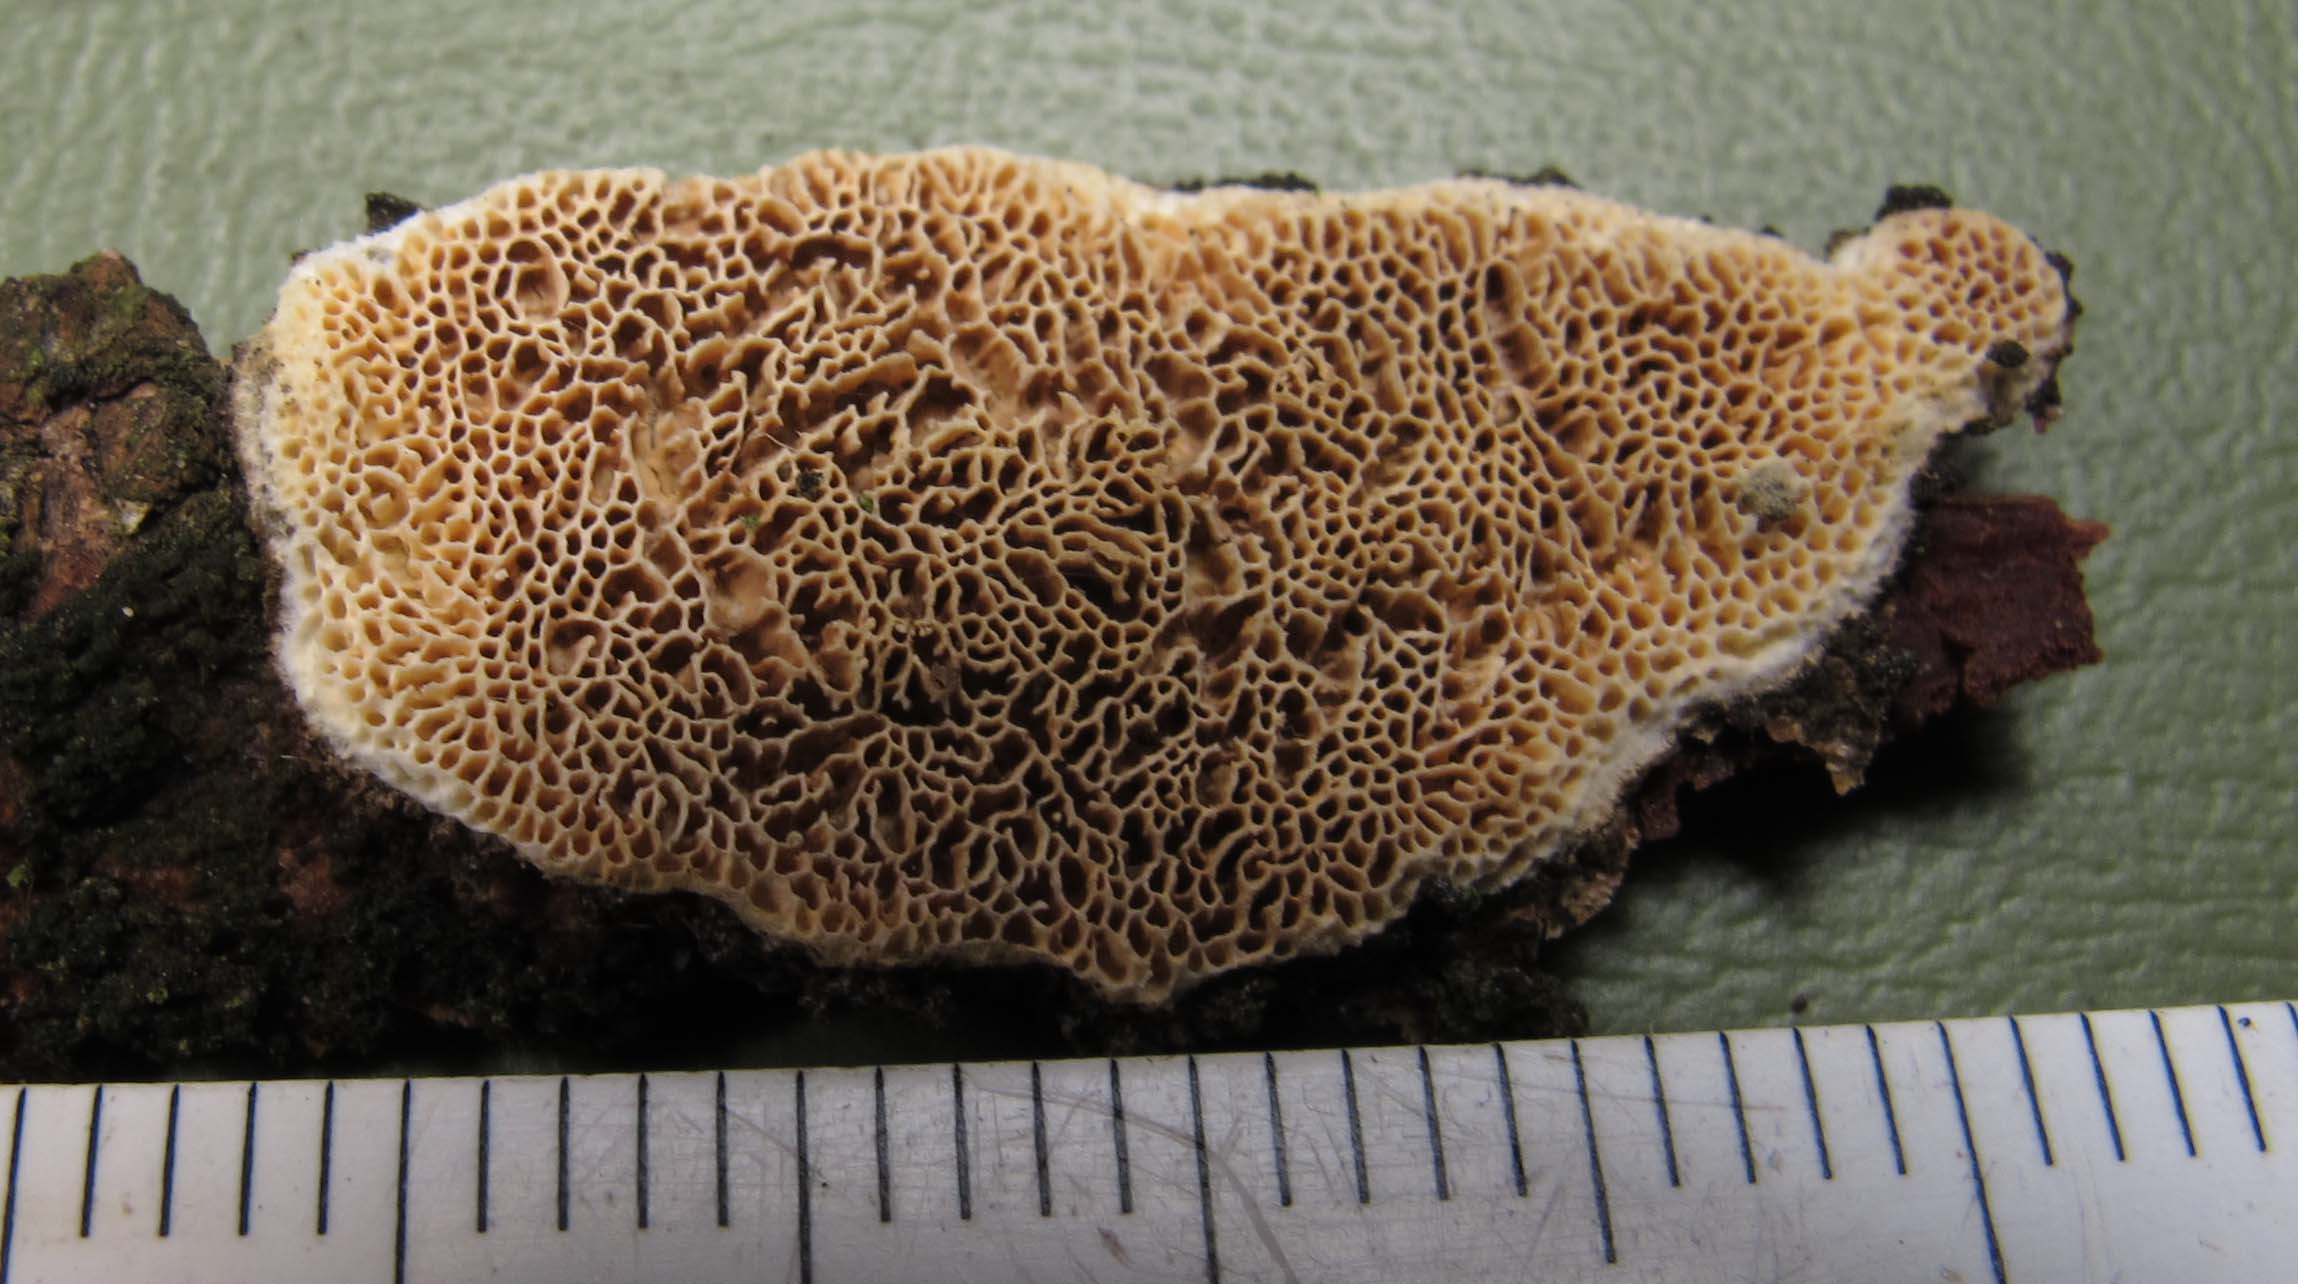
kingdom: Fungi
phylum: Basidiomycota
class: Agaricomycetes
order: Polyporales
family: Fomitopsidaceae
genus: Brunneoporus
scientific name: Brunneoporus kuzyanus
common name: brunlig sejporesvamp
